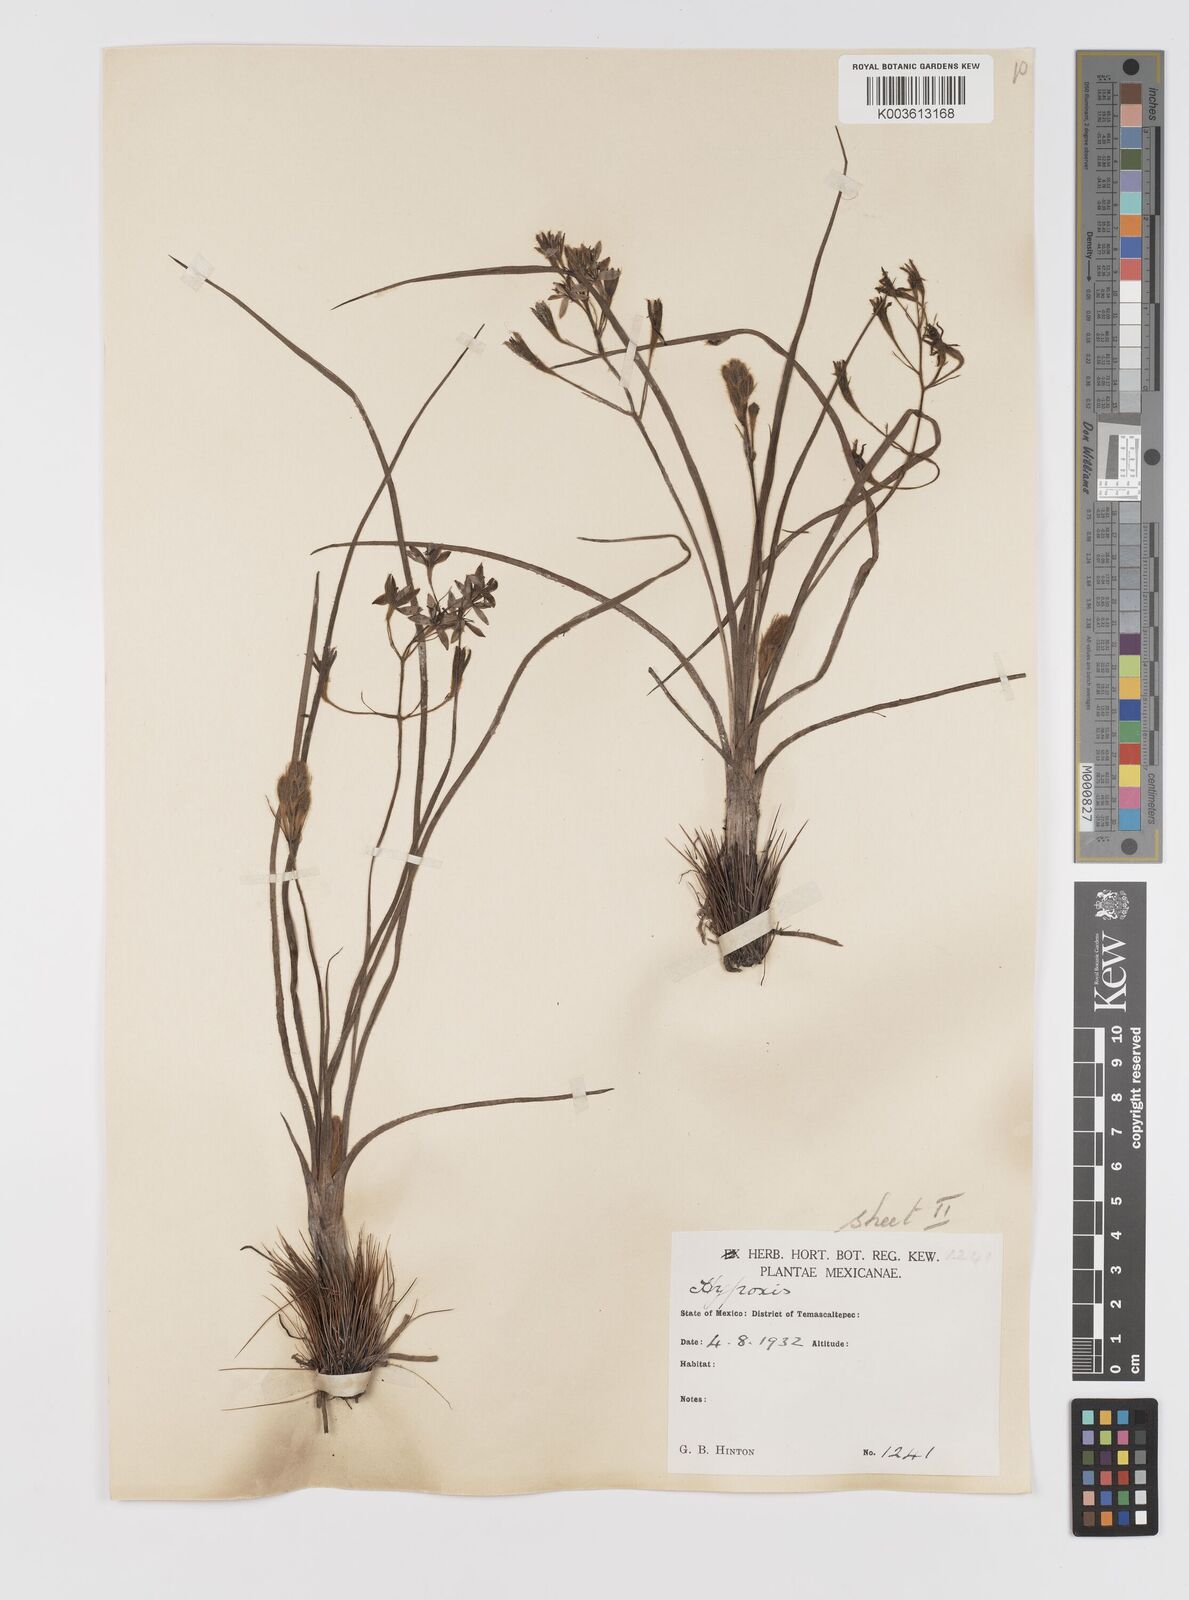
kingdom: Plantae
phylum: Tracheophyta
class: Liliopsida
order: Asparagales
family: Hypoxidaceae
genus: Hypoxis
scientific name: Hypoxis potosina
